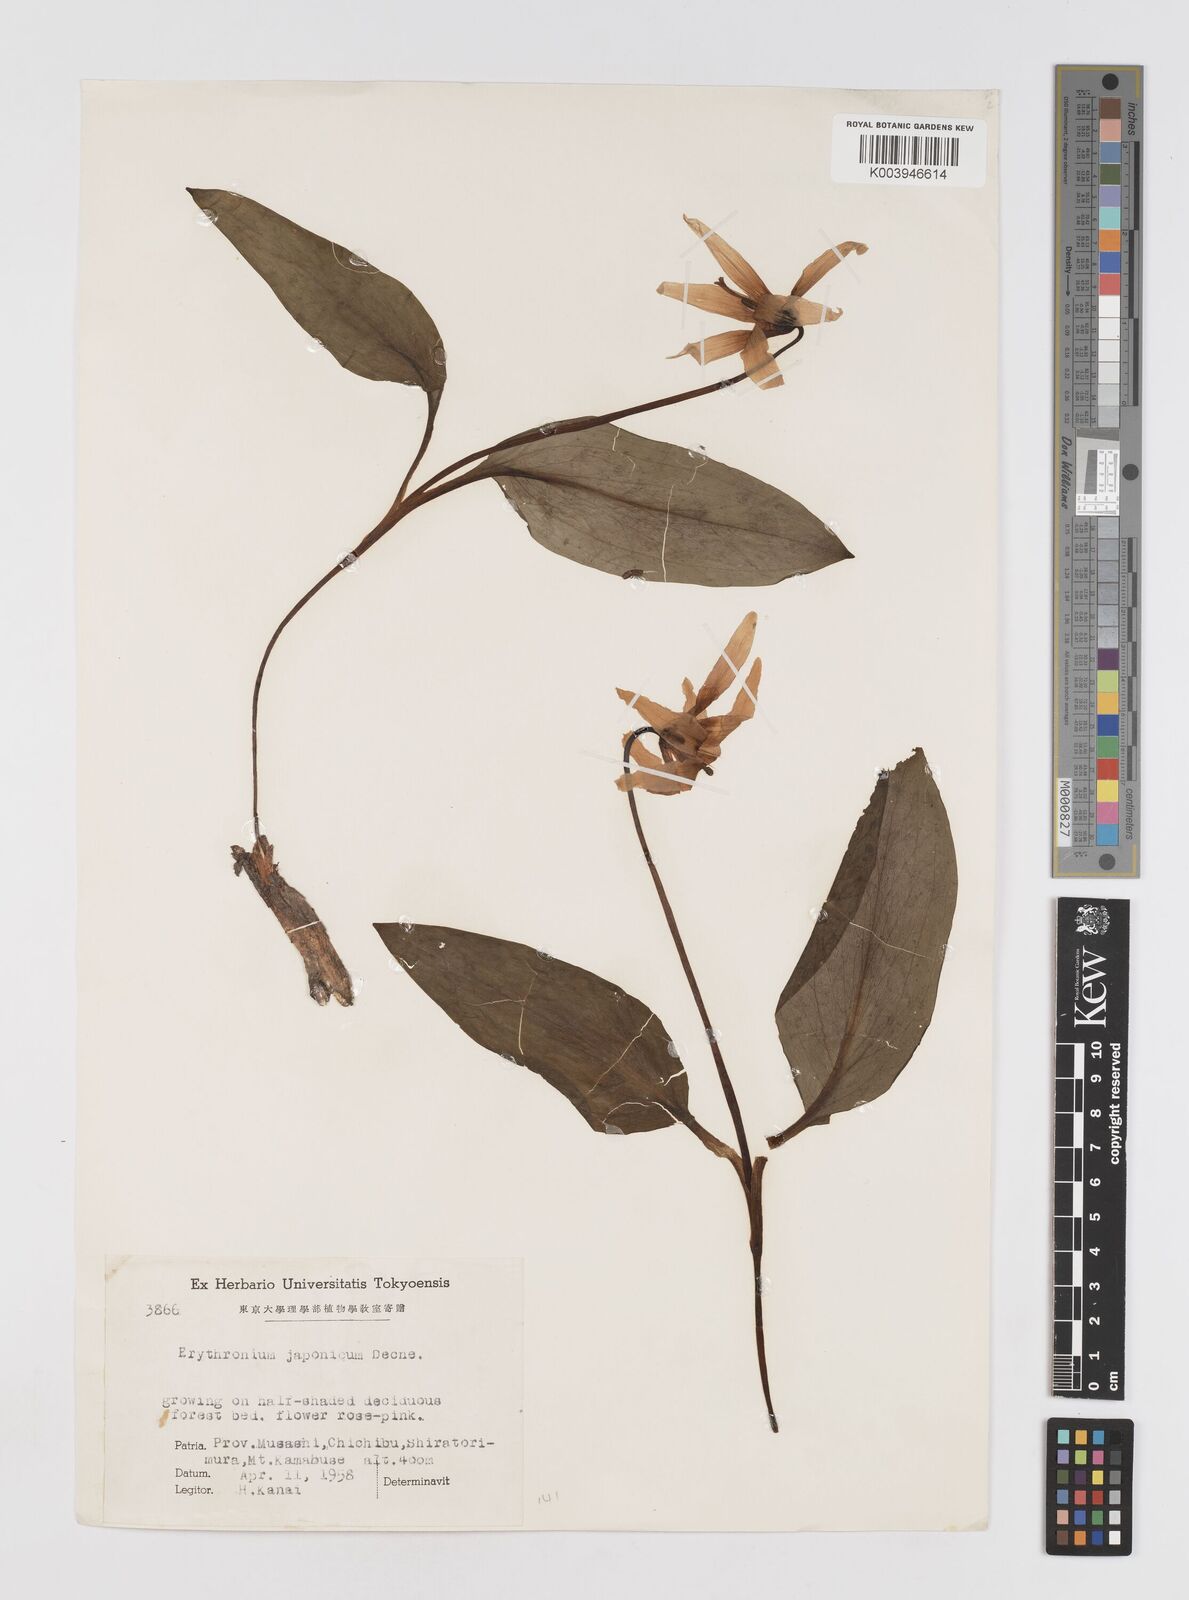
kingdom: Plantae
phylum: Tracheophyta
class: Liliopsida
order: Liliales
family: Liliaceae
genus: Erythronium
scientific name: Erythronium japonicum
